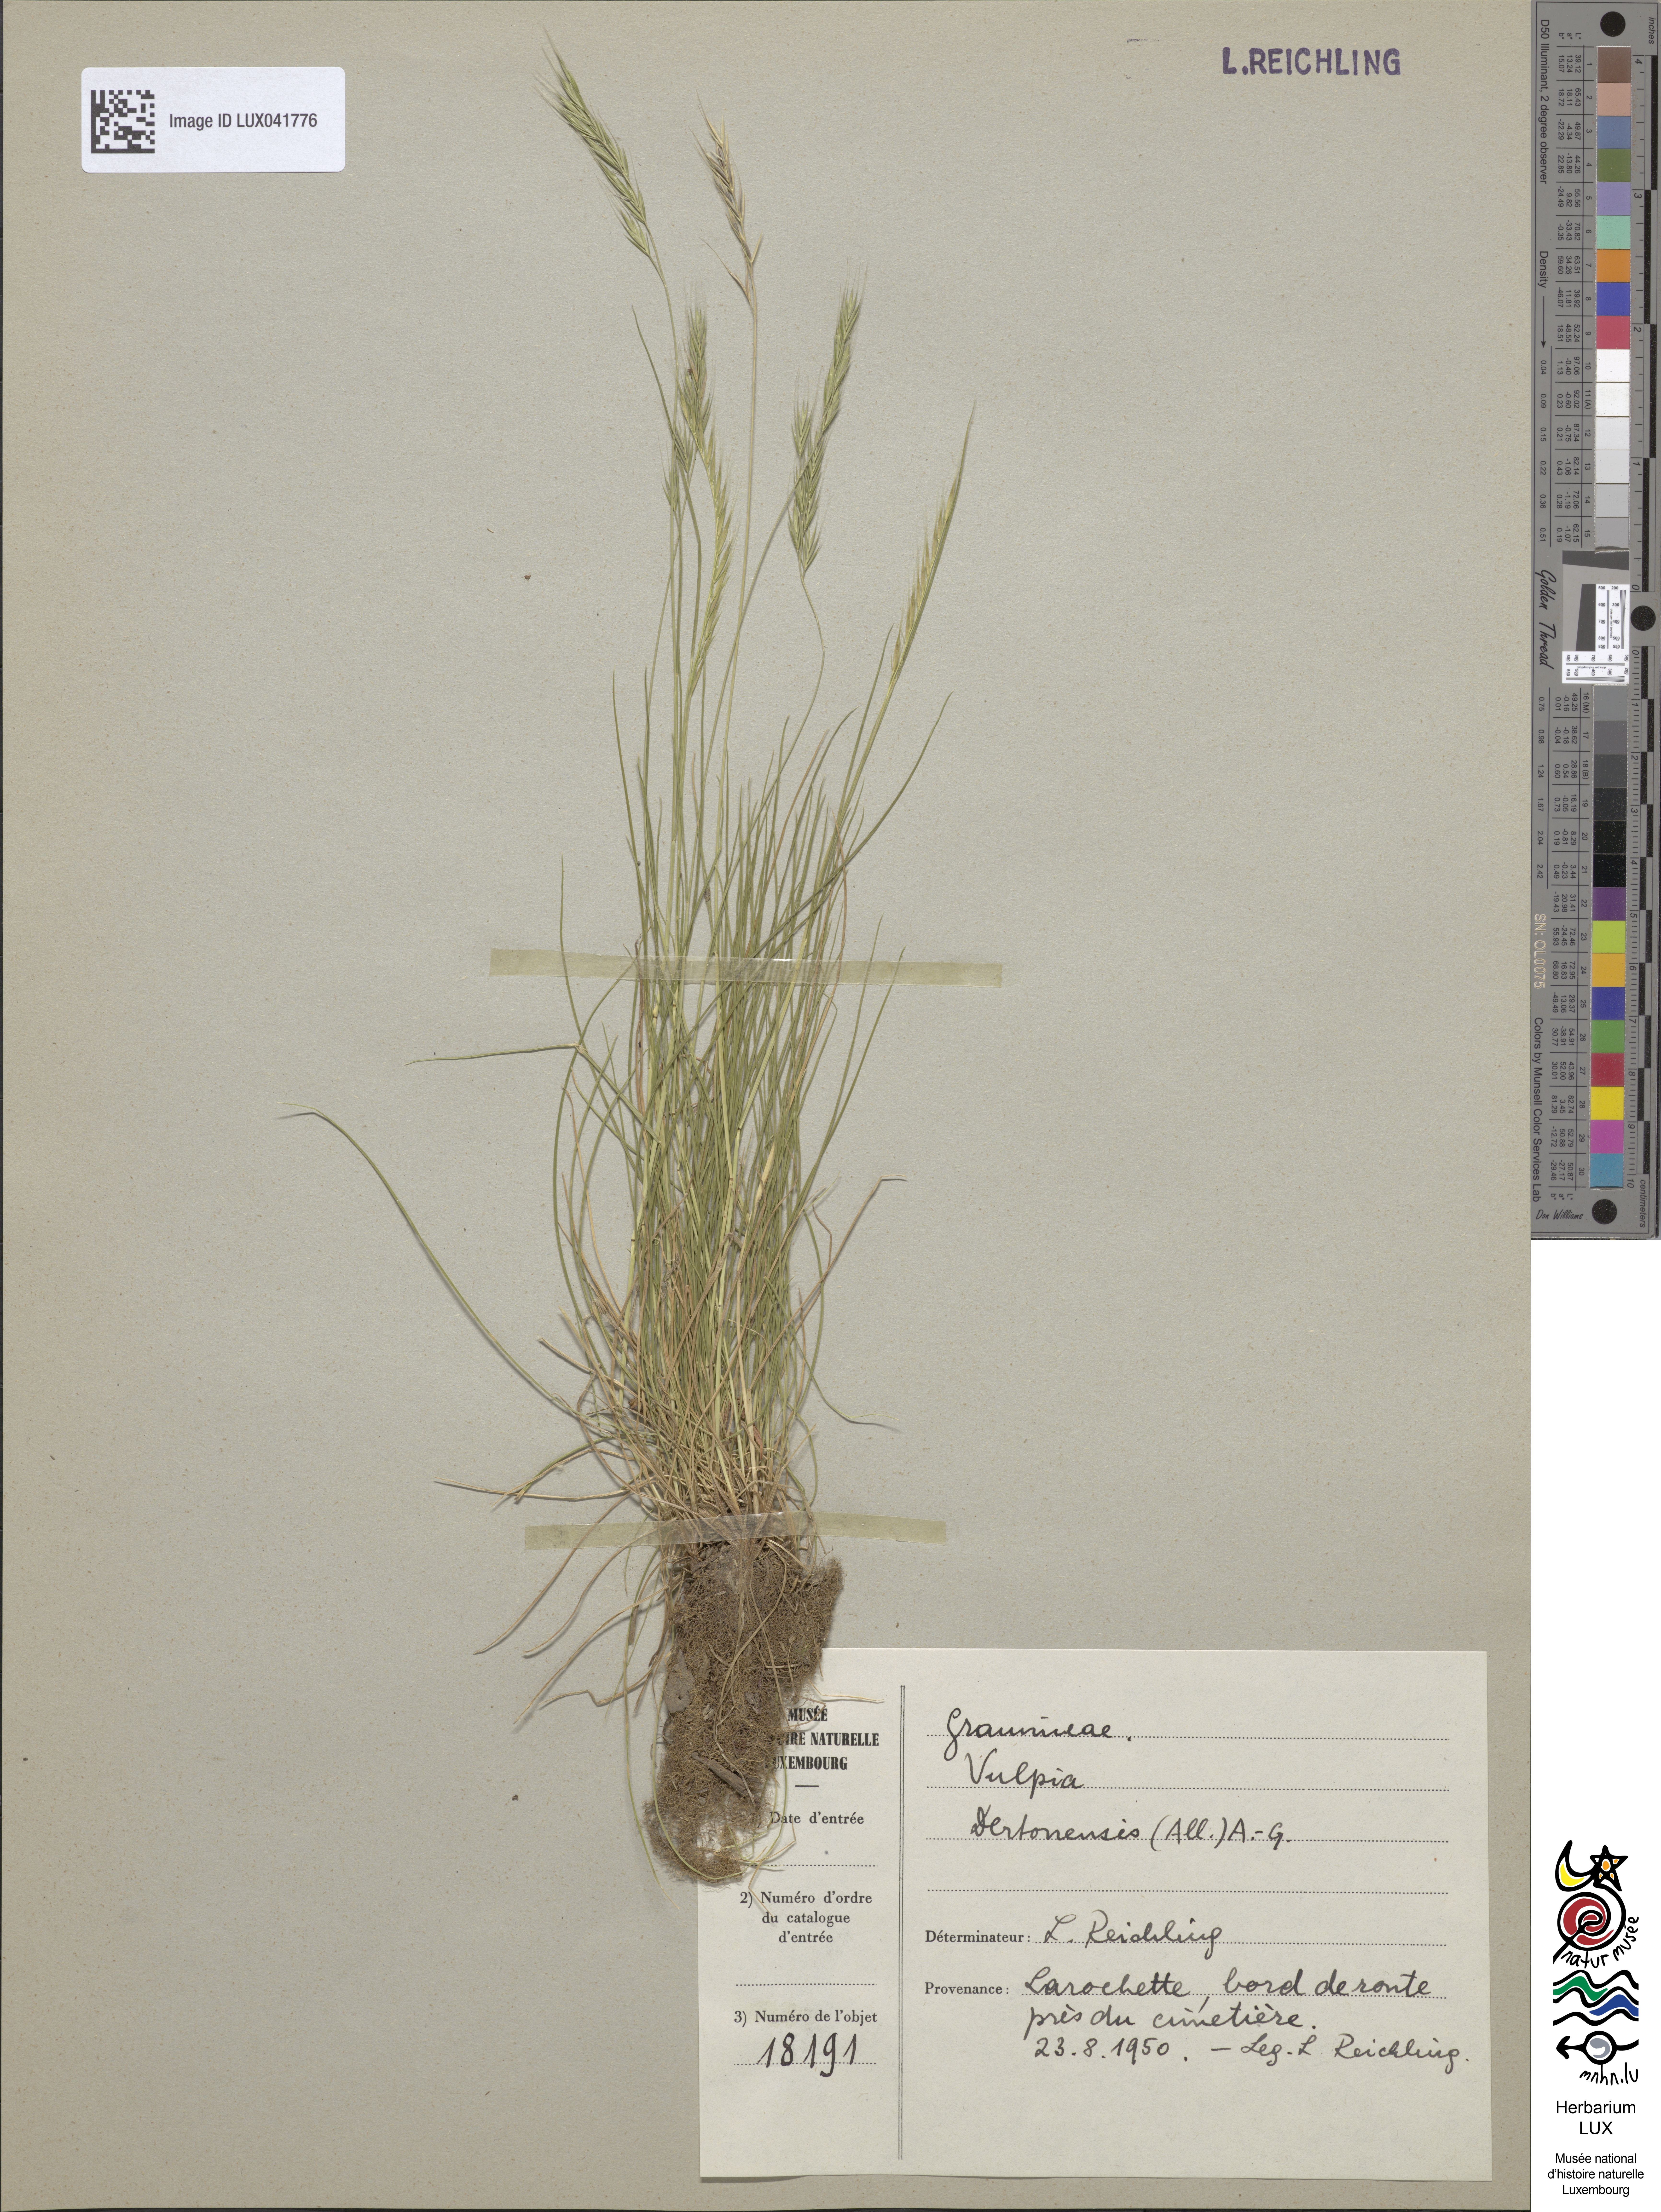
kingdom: Plantae
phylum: Tracheophyta
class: Liliopsida
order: Poales
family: Poaceae
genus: Festuca
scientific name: Festuca bromoides
